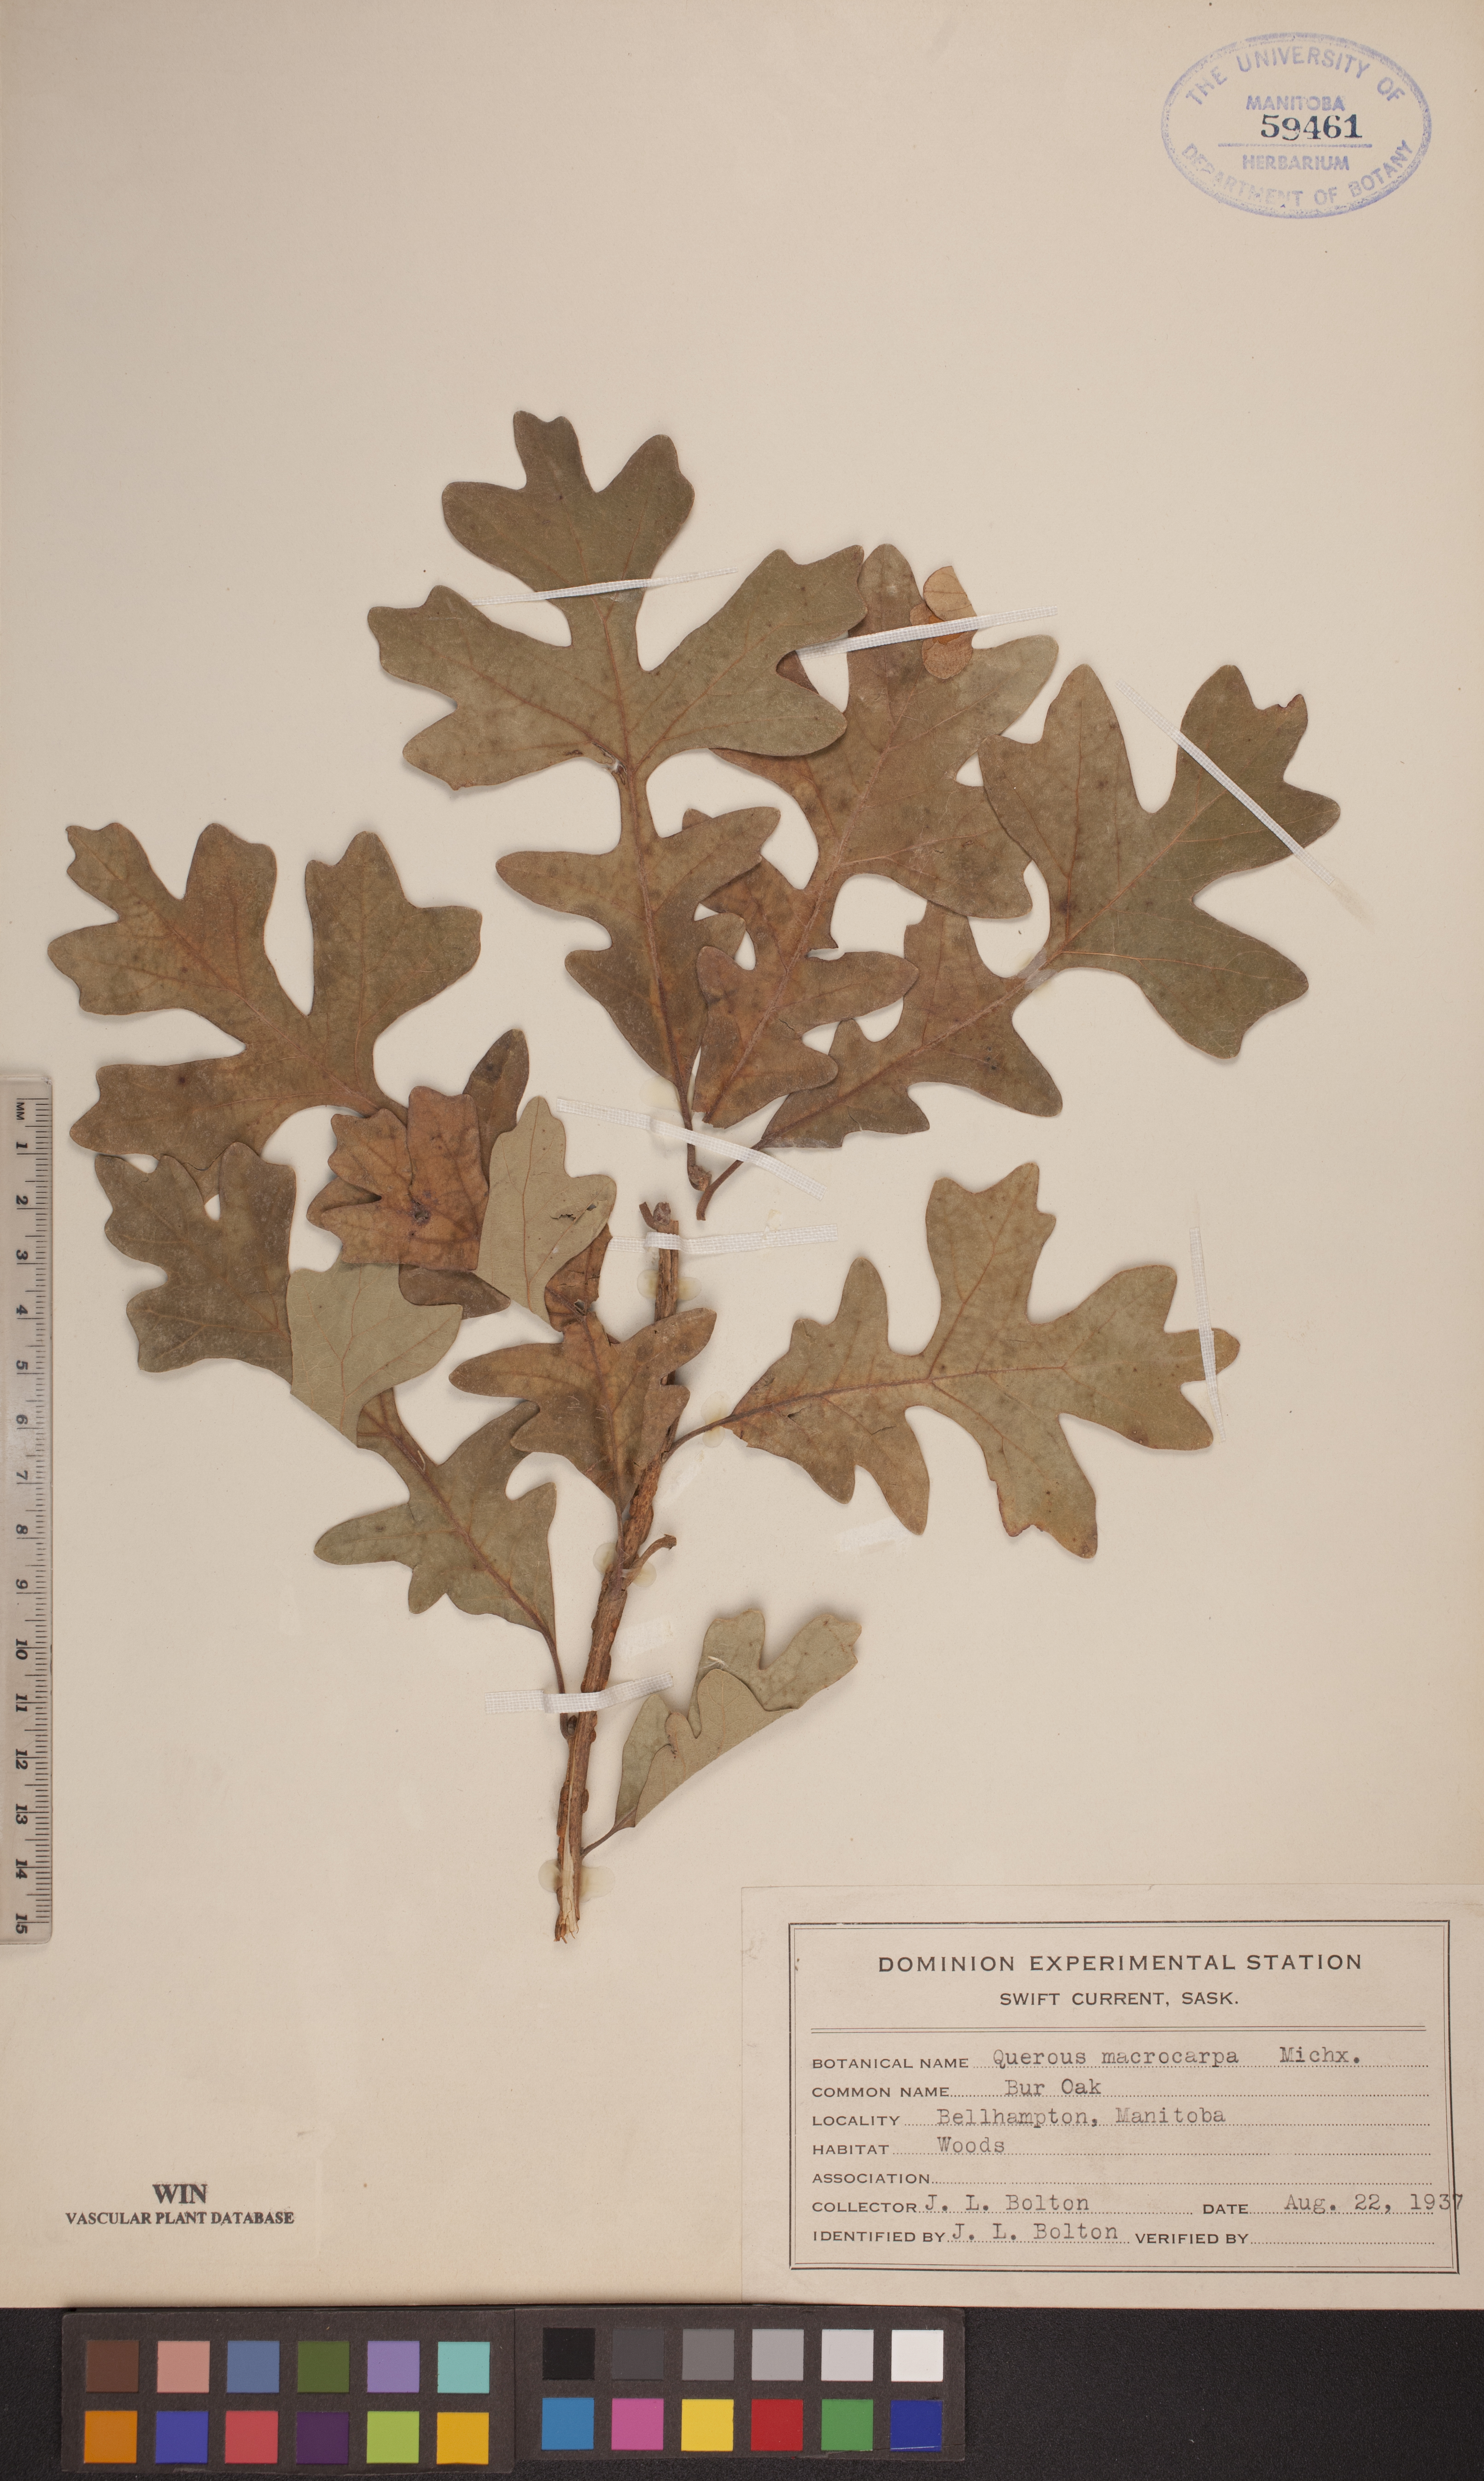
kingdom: Plantae
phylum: Tracheophyta
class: Magnoliopsida
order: Fagales
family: Fagaceae
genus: Quercus
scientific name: Quercus macrocarpa
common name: Bur oak
